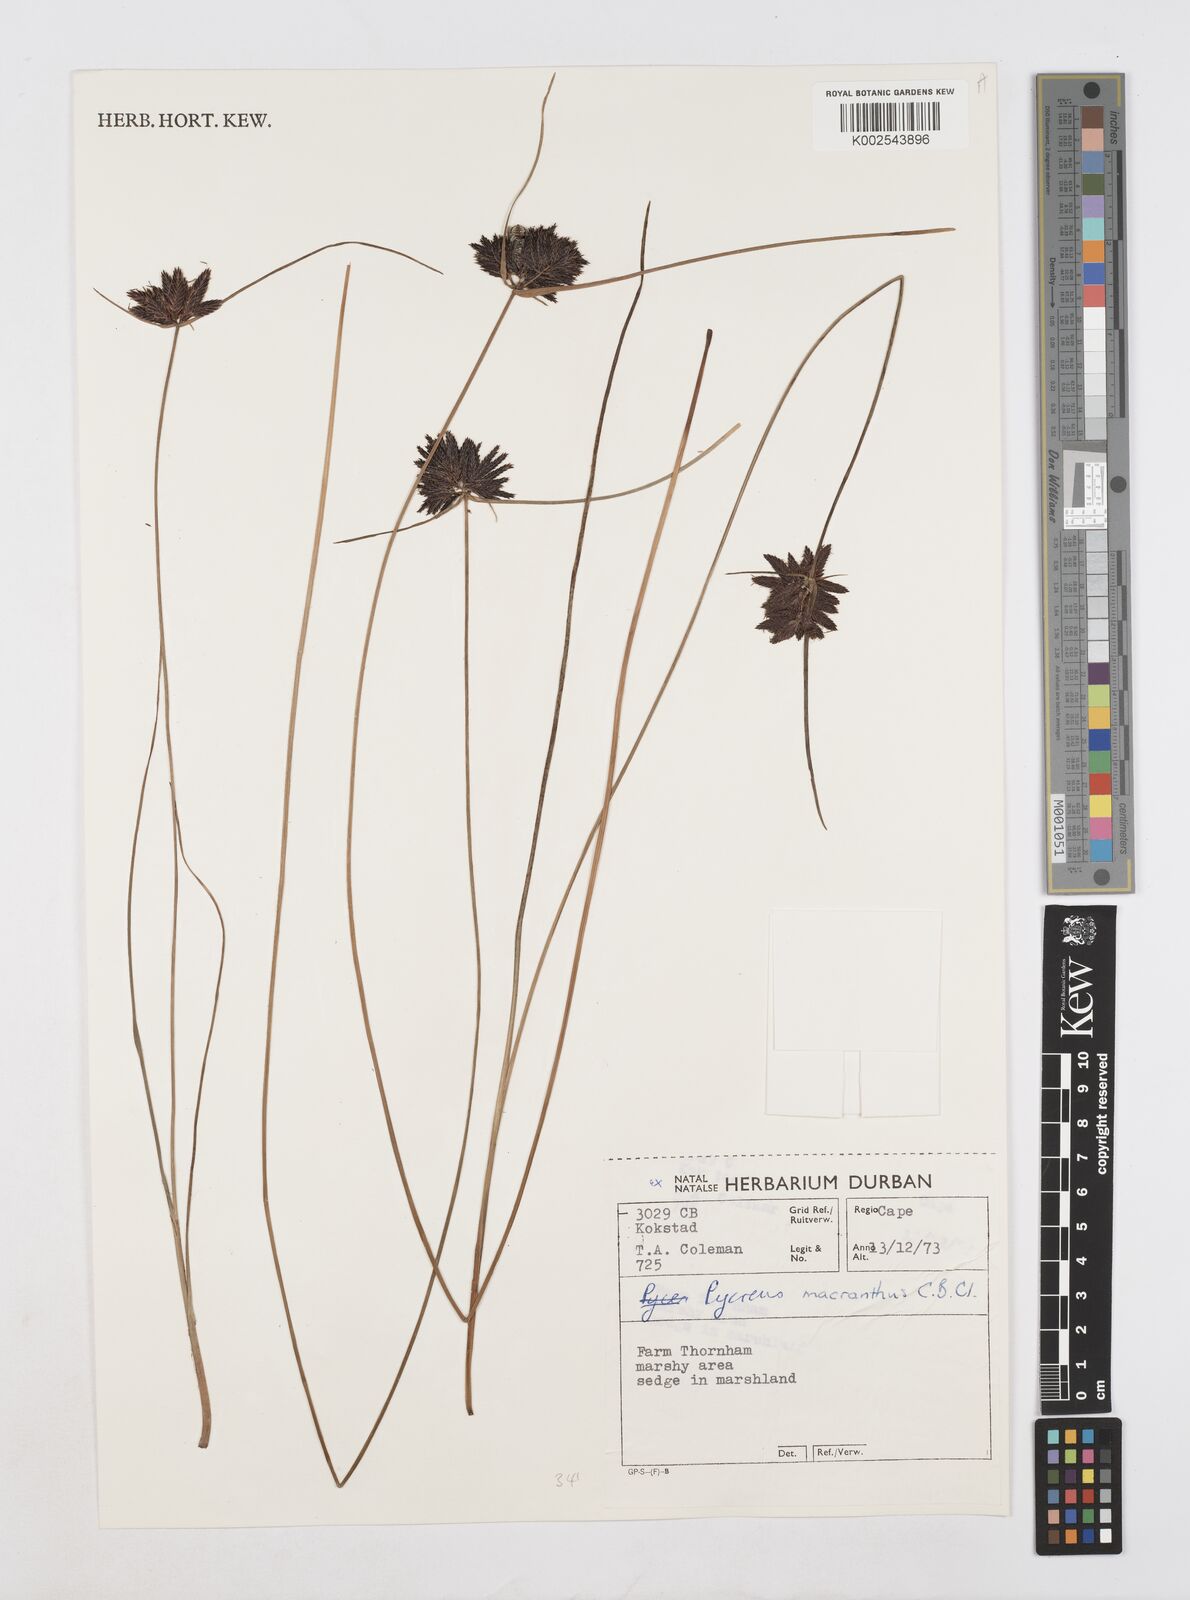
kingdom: Plantae
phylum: Tracheophyta
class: Liliopsida
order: Poales
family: Cyperaceae
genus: Cyperus
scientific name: Cyperus nigricans
